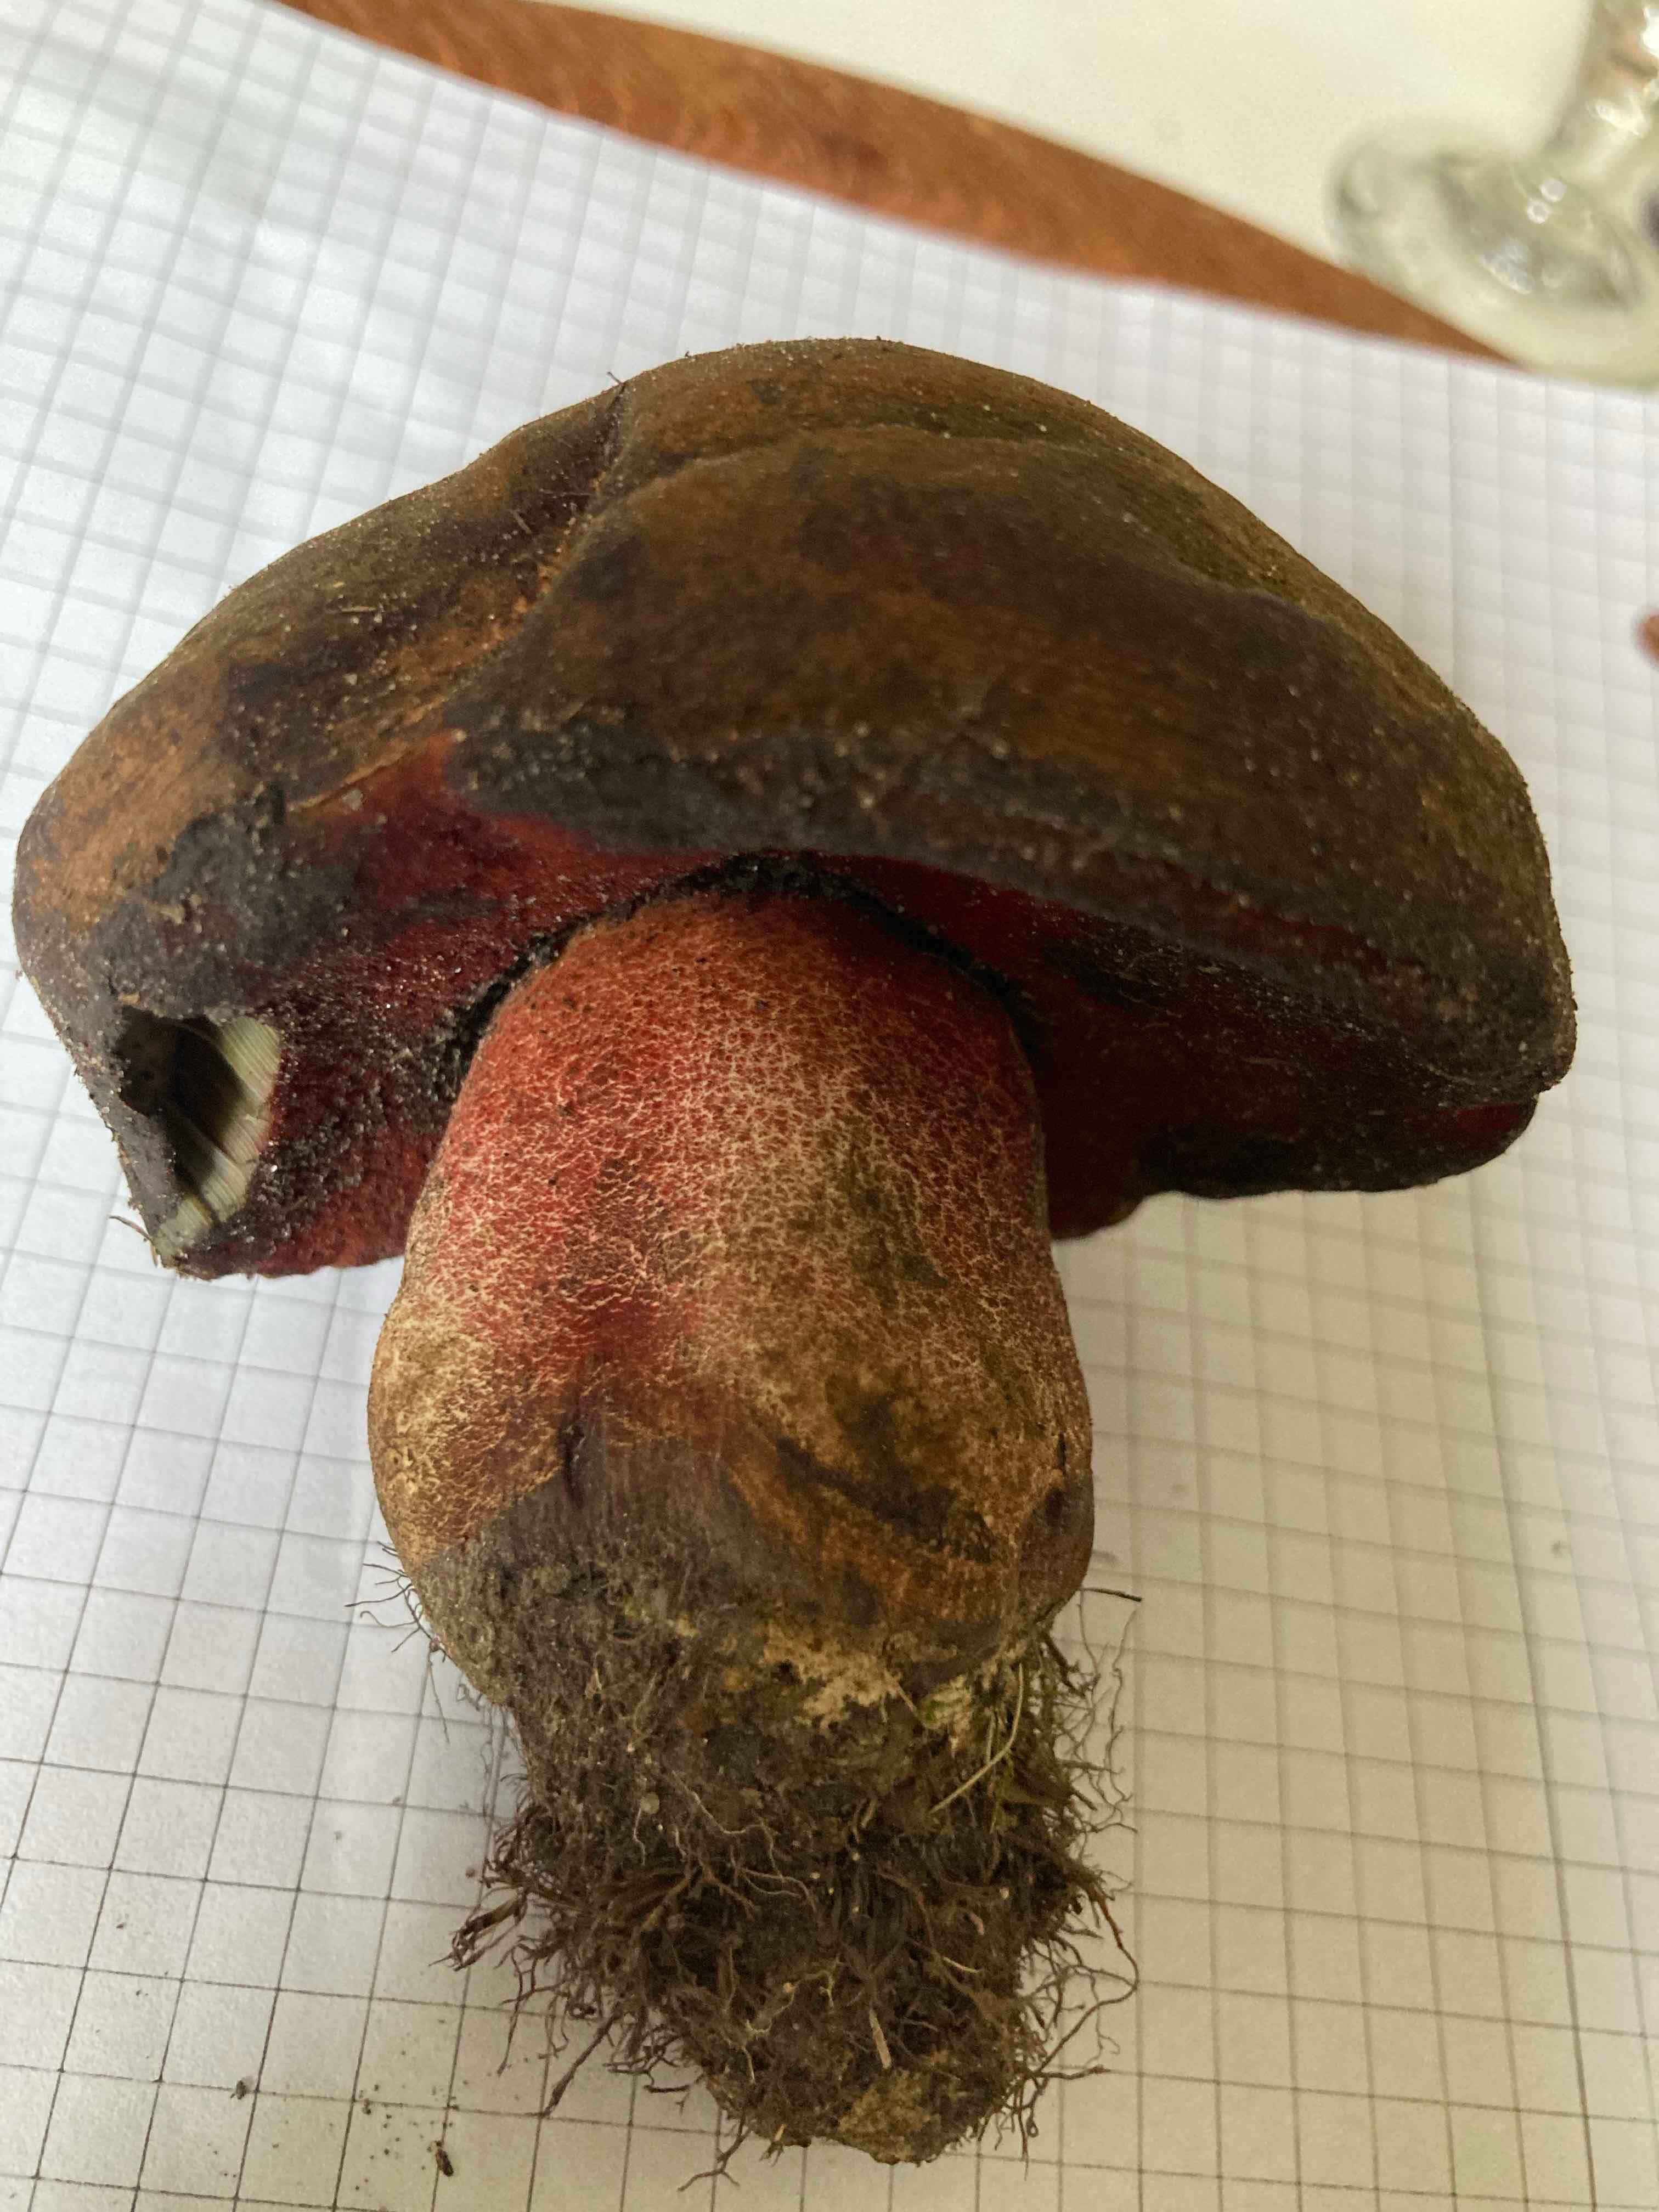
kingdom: Fungi
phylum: Basidiomycota
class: Agaricomycetes
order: Boletales
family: Boletaceae
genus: Neoboletus
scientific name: Neoboletus erythropus
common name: punktstokket indigorørhat
